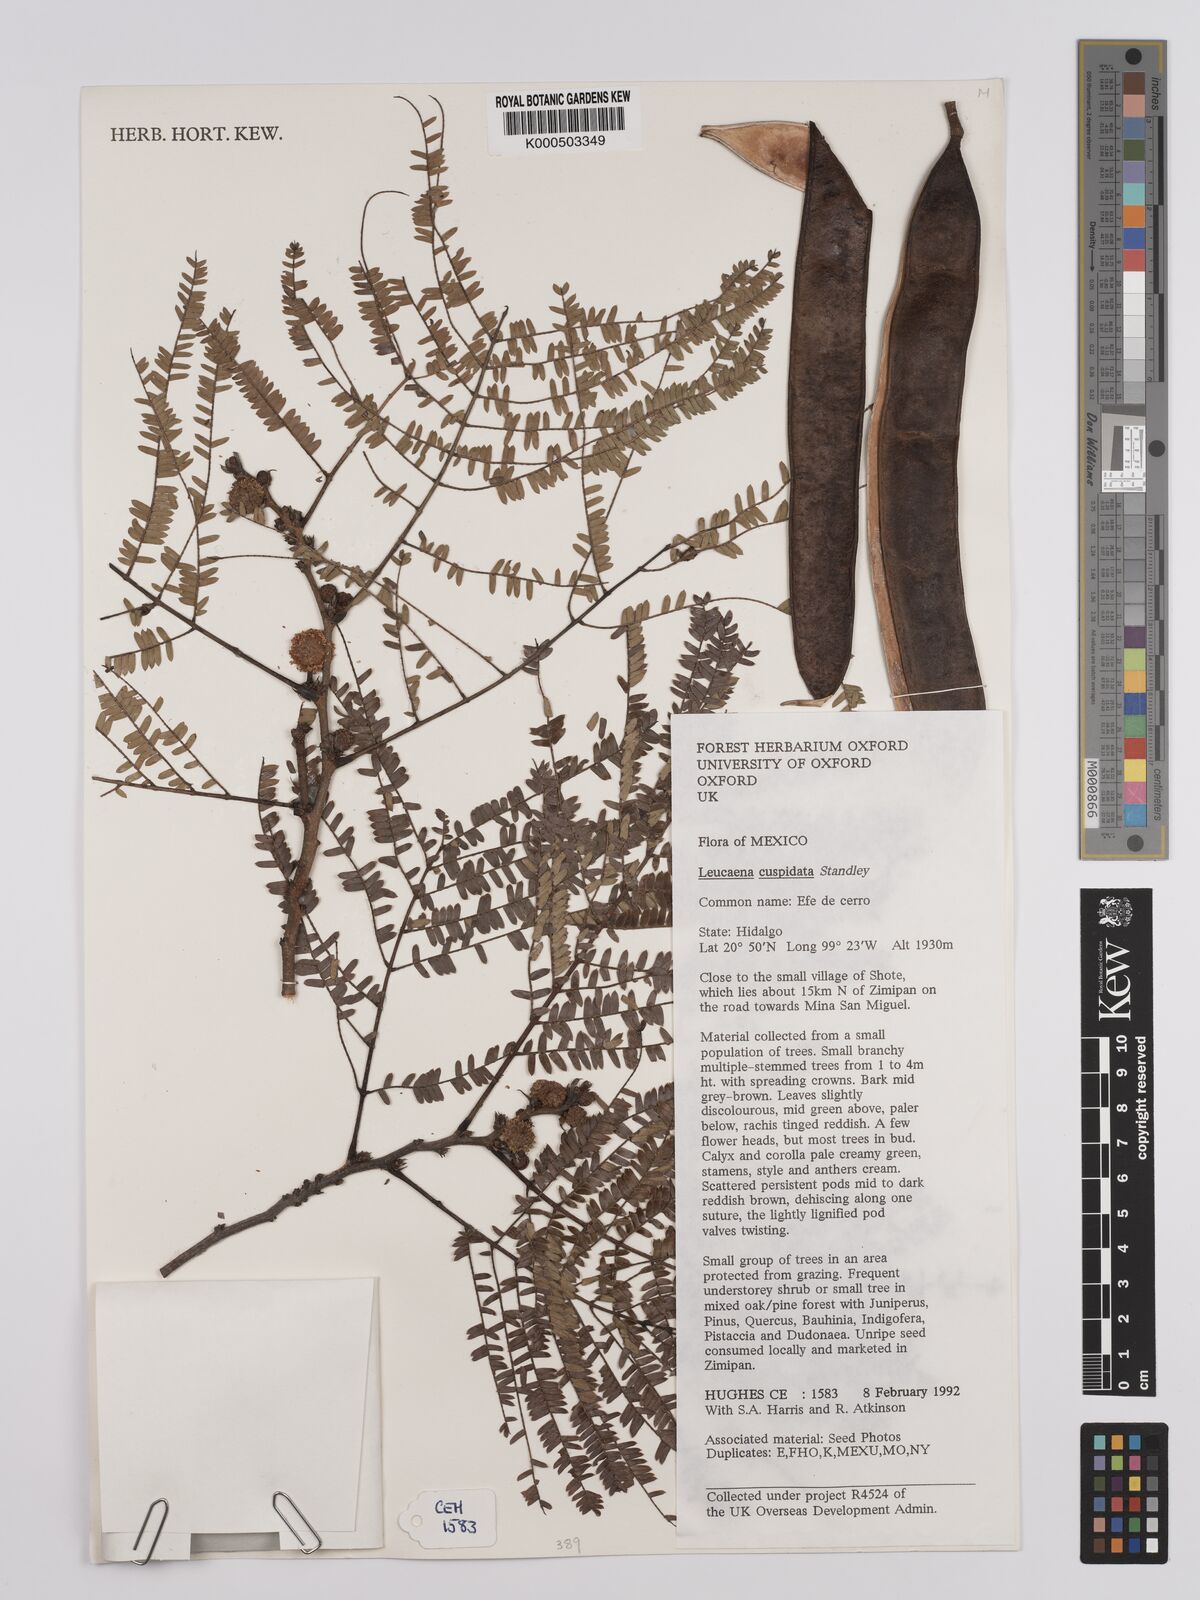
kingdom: Plantae
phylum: Tracheophyta
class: Magnoliopsida
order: Fabales
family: Fabaceae
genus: Leucaena
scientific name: Leucaena cuspidata
